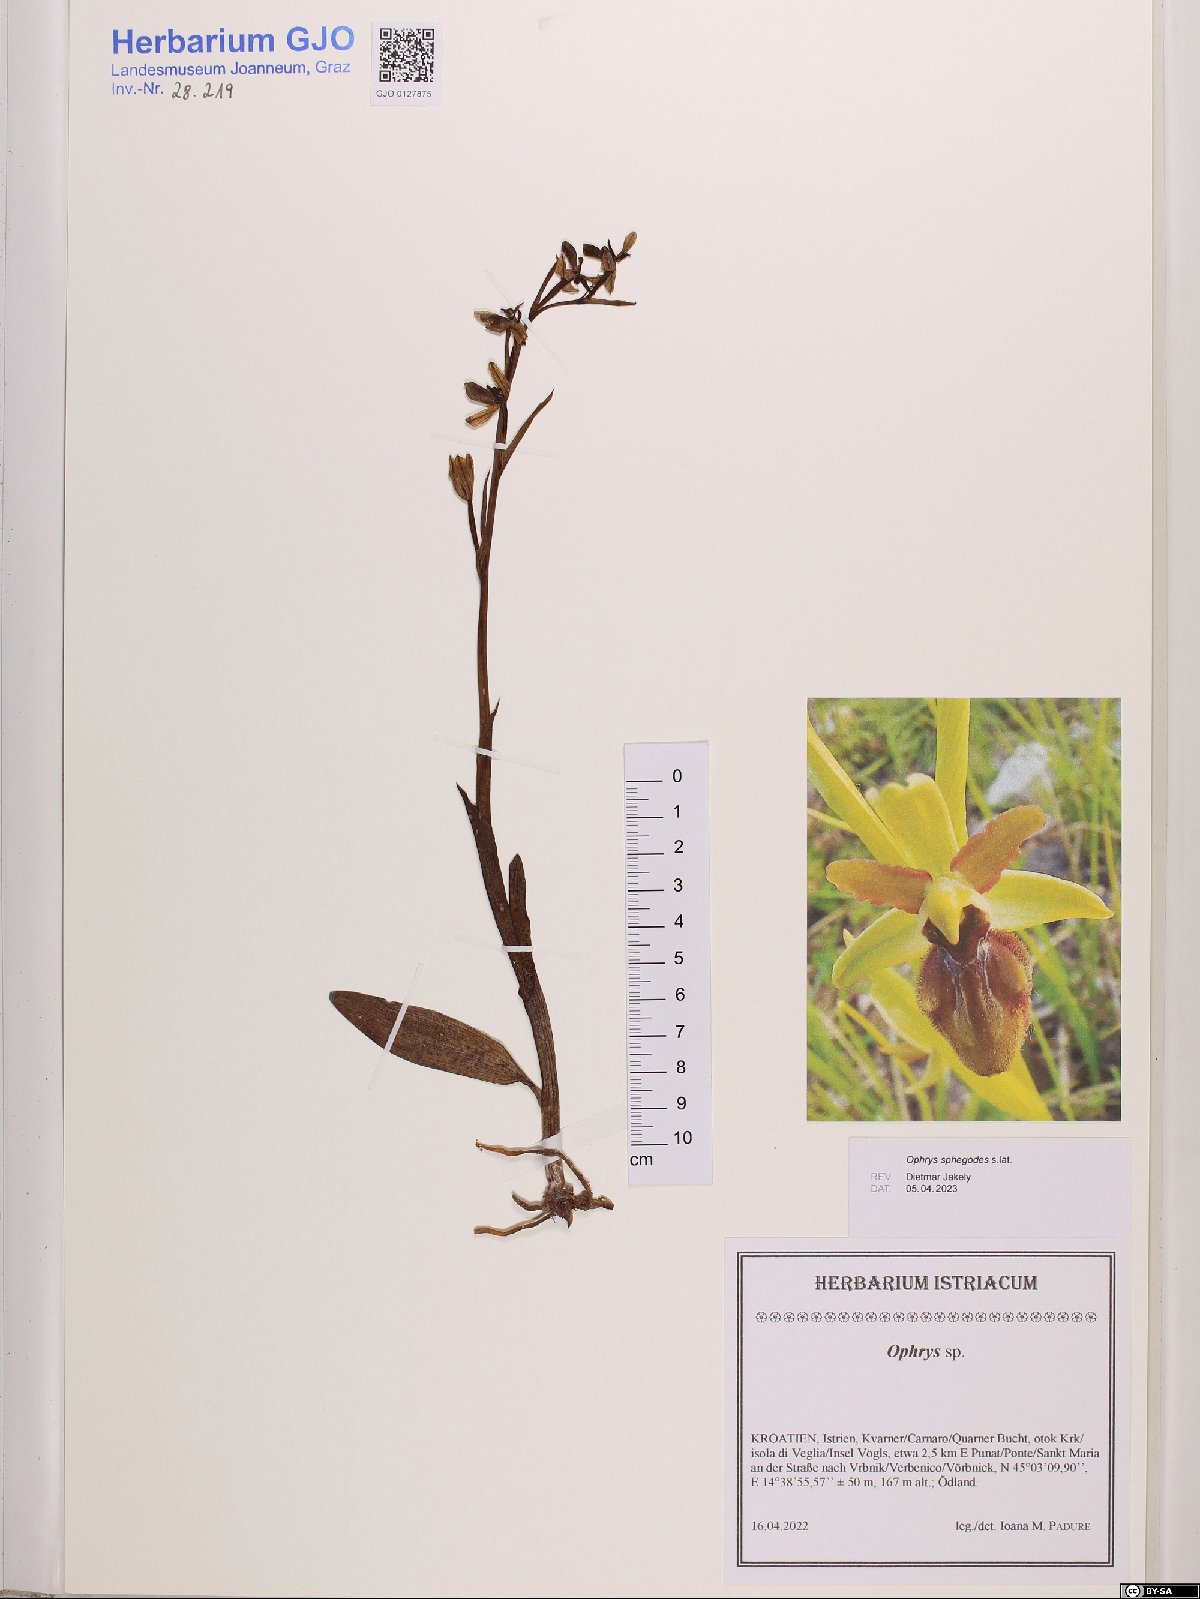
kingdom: Plantae
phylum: Tracheophyta
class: Liliopsida
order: Asparagales
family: Orchidaceae
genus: Ophrys
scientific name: Ophrys sphegodes
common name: Early spider-orchid
